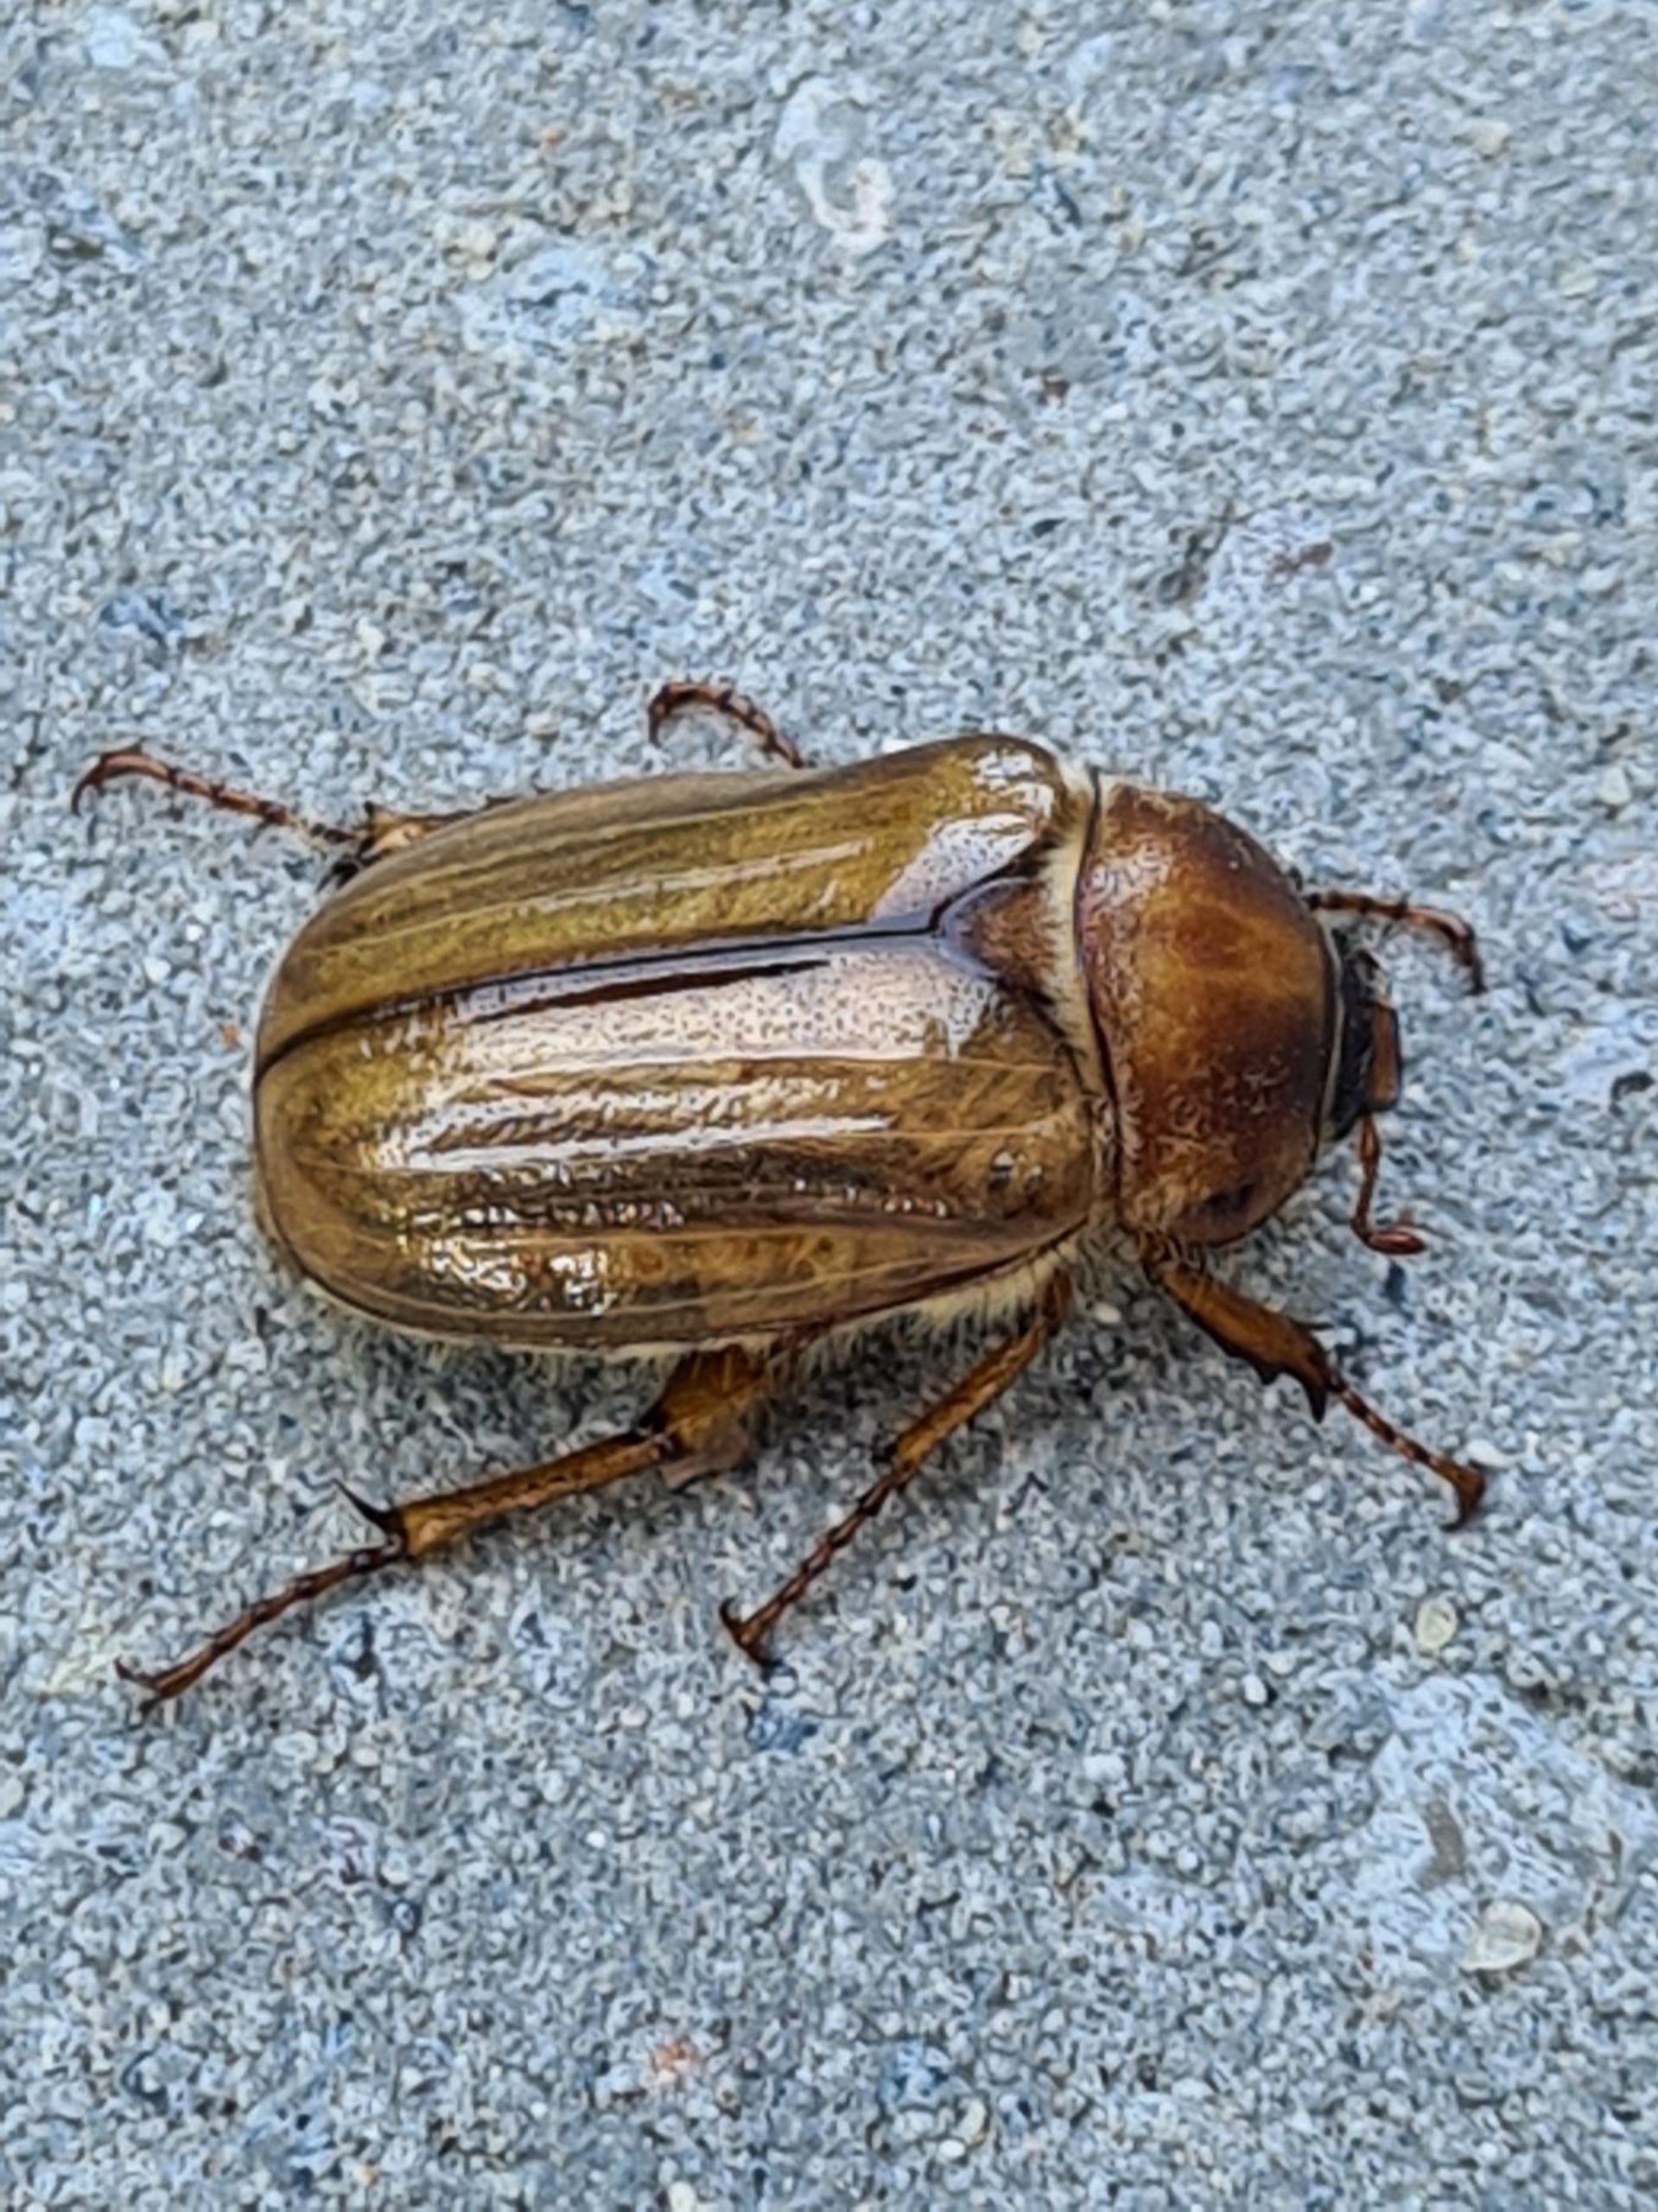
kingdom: Animalia
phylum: Arthropoda
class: Insecta
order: Coleoptera
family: Scarabaeidae
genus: Amphimallon
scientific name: Amphimallon solstitiale
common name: Sankthansoldenborre
